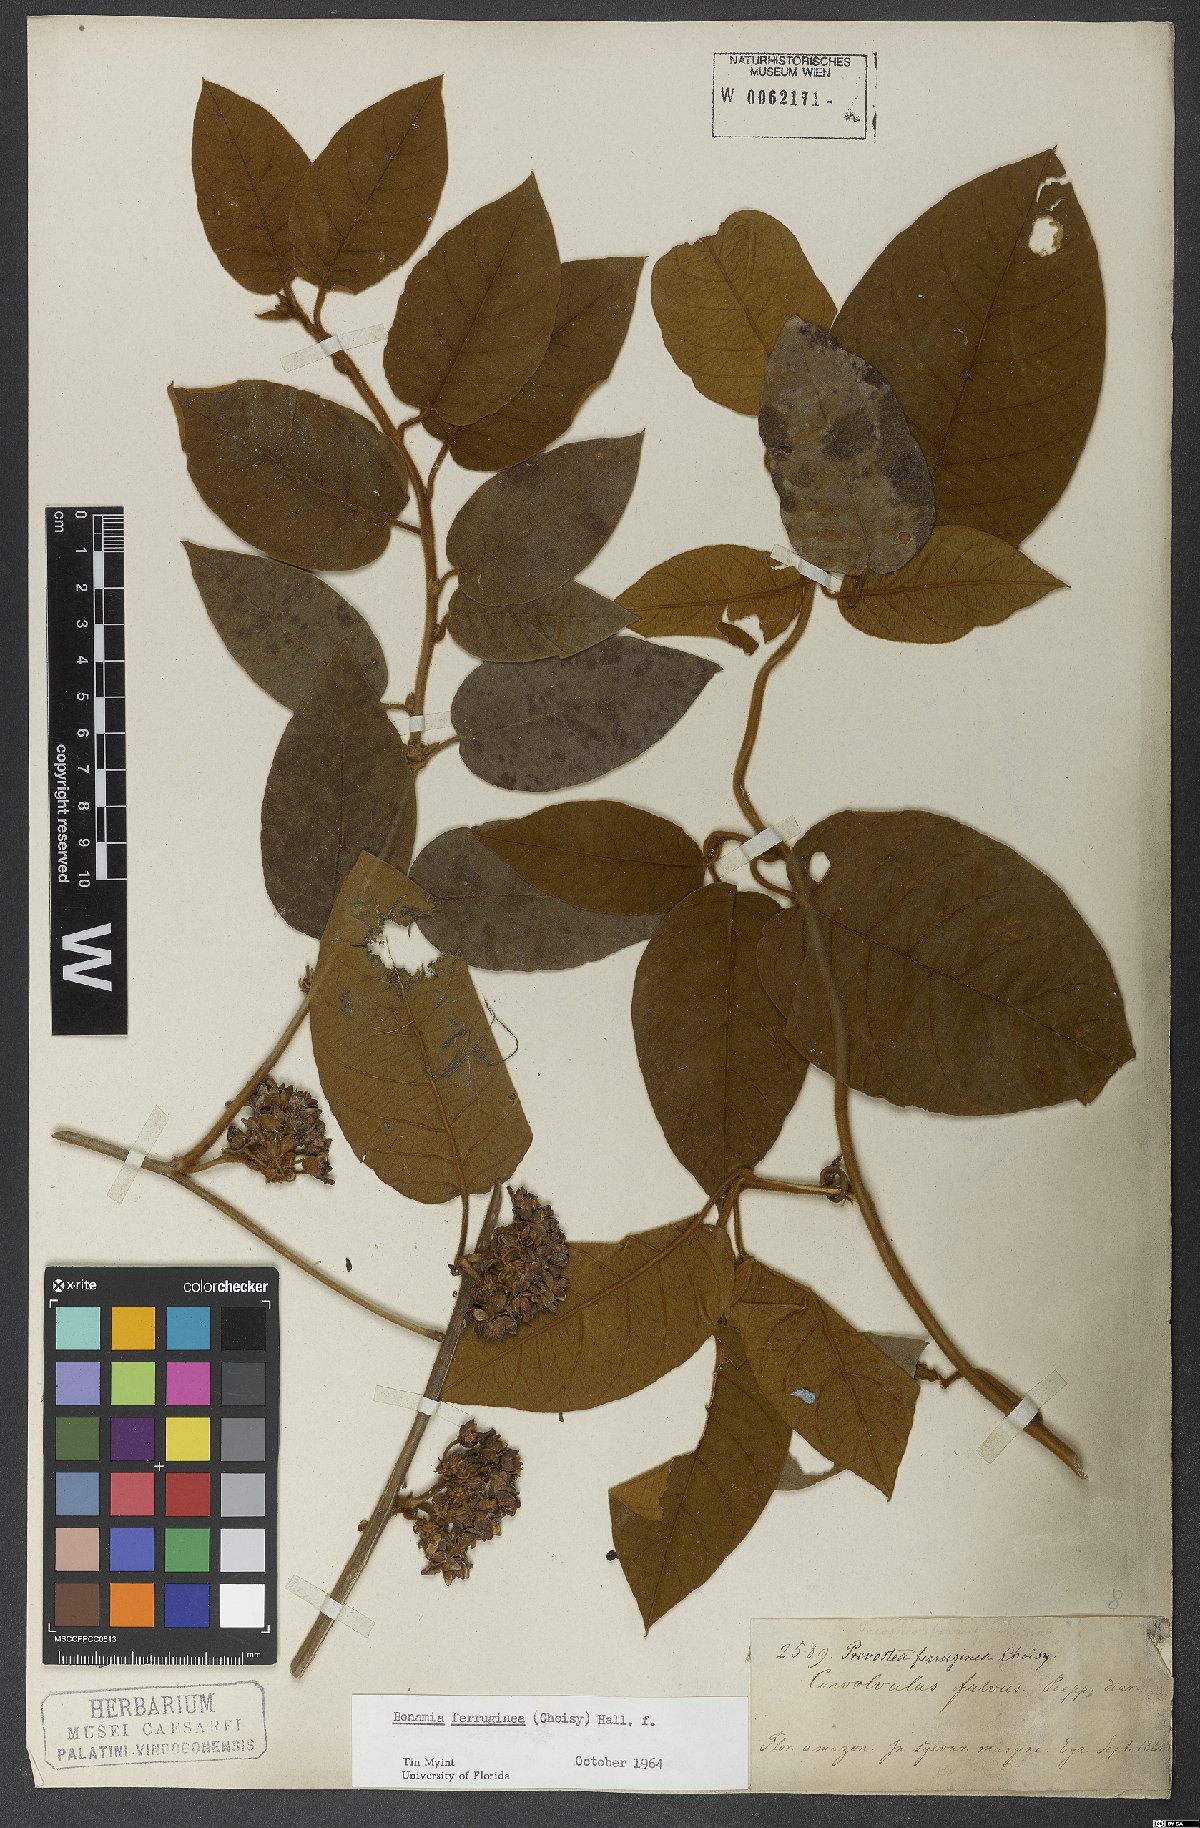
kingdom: Plantae
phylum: Tracheophyta
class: Magnoliopsida
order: Solanales
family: Convolvulaceae
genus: Bonamia
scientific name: Bonamia ferruginea
